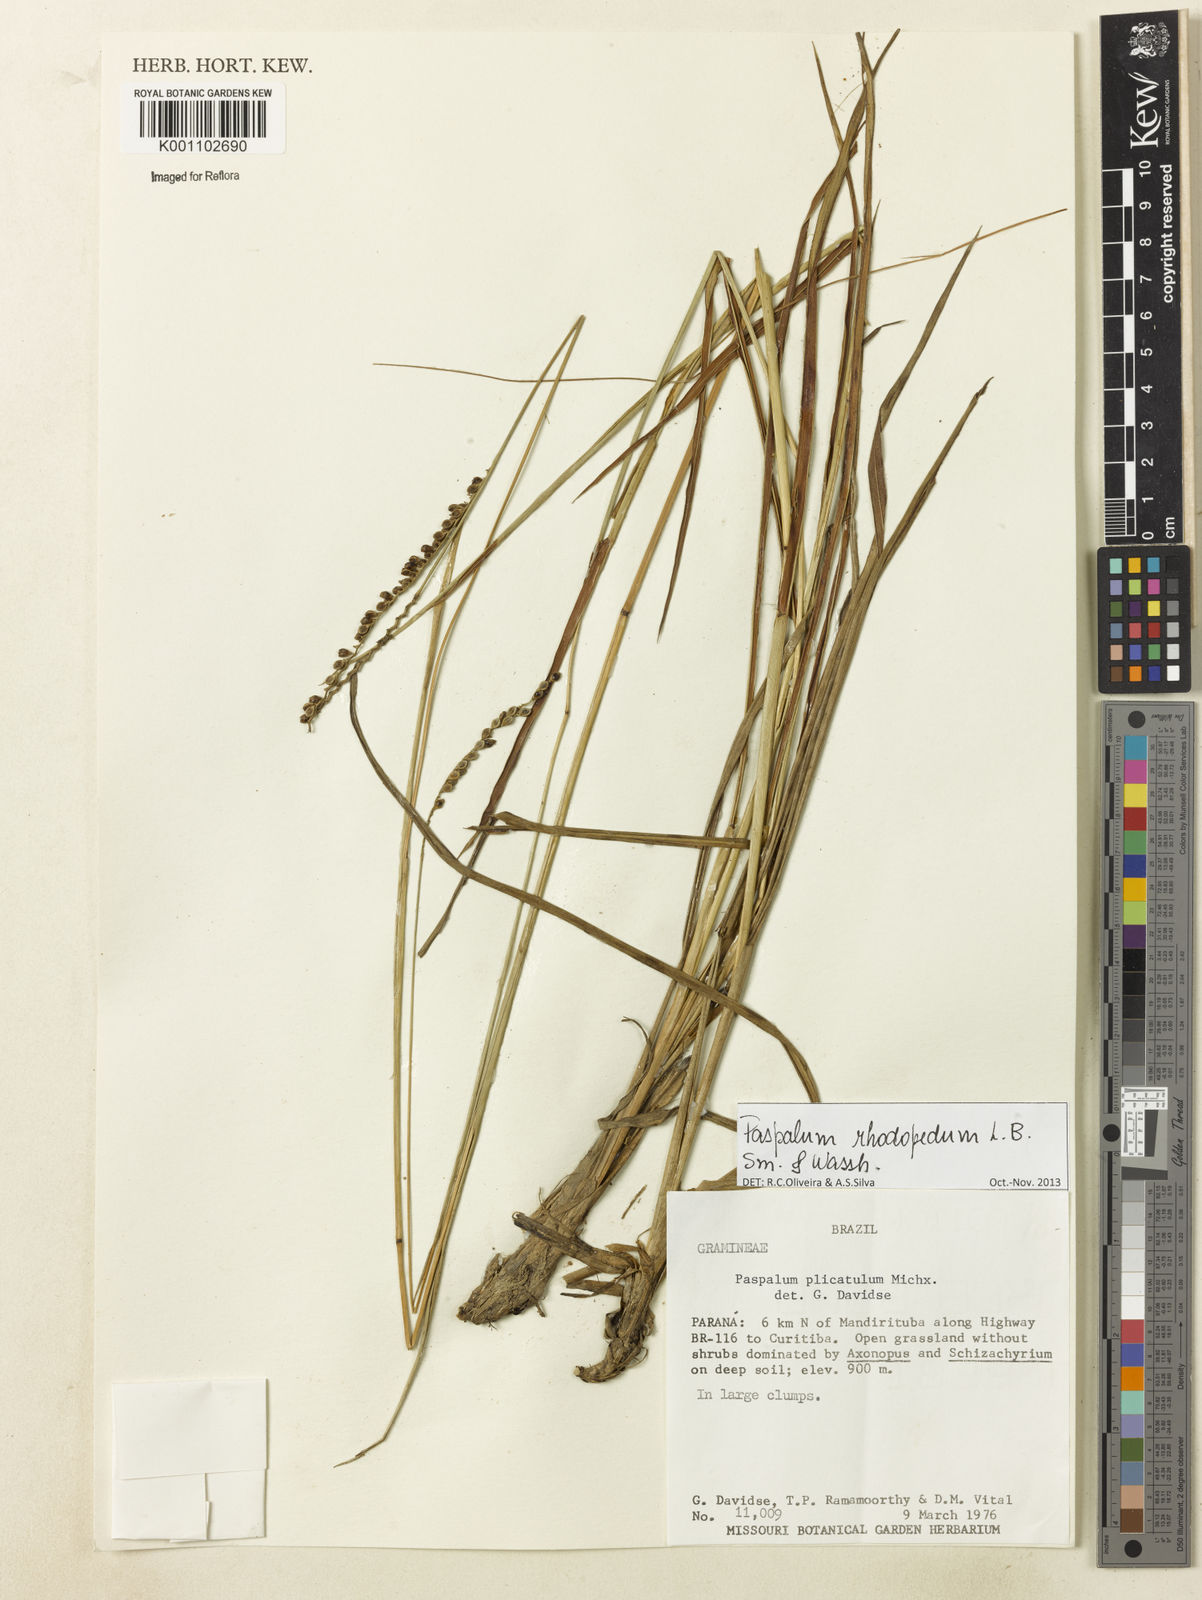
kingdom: Plantae
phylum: Tracheophyta
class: Liliopsida
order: Poales
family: Poaceae
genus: Paspalum
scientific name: Paspalum guenoarum
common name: Wintergreen paspalum
